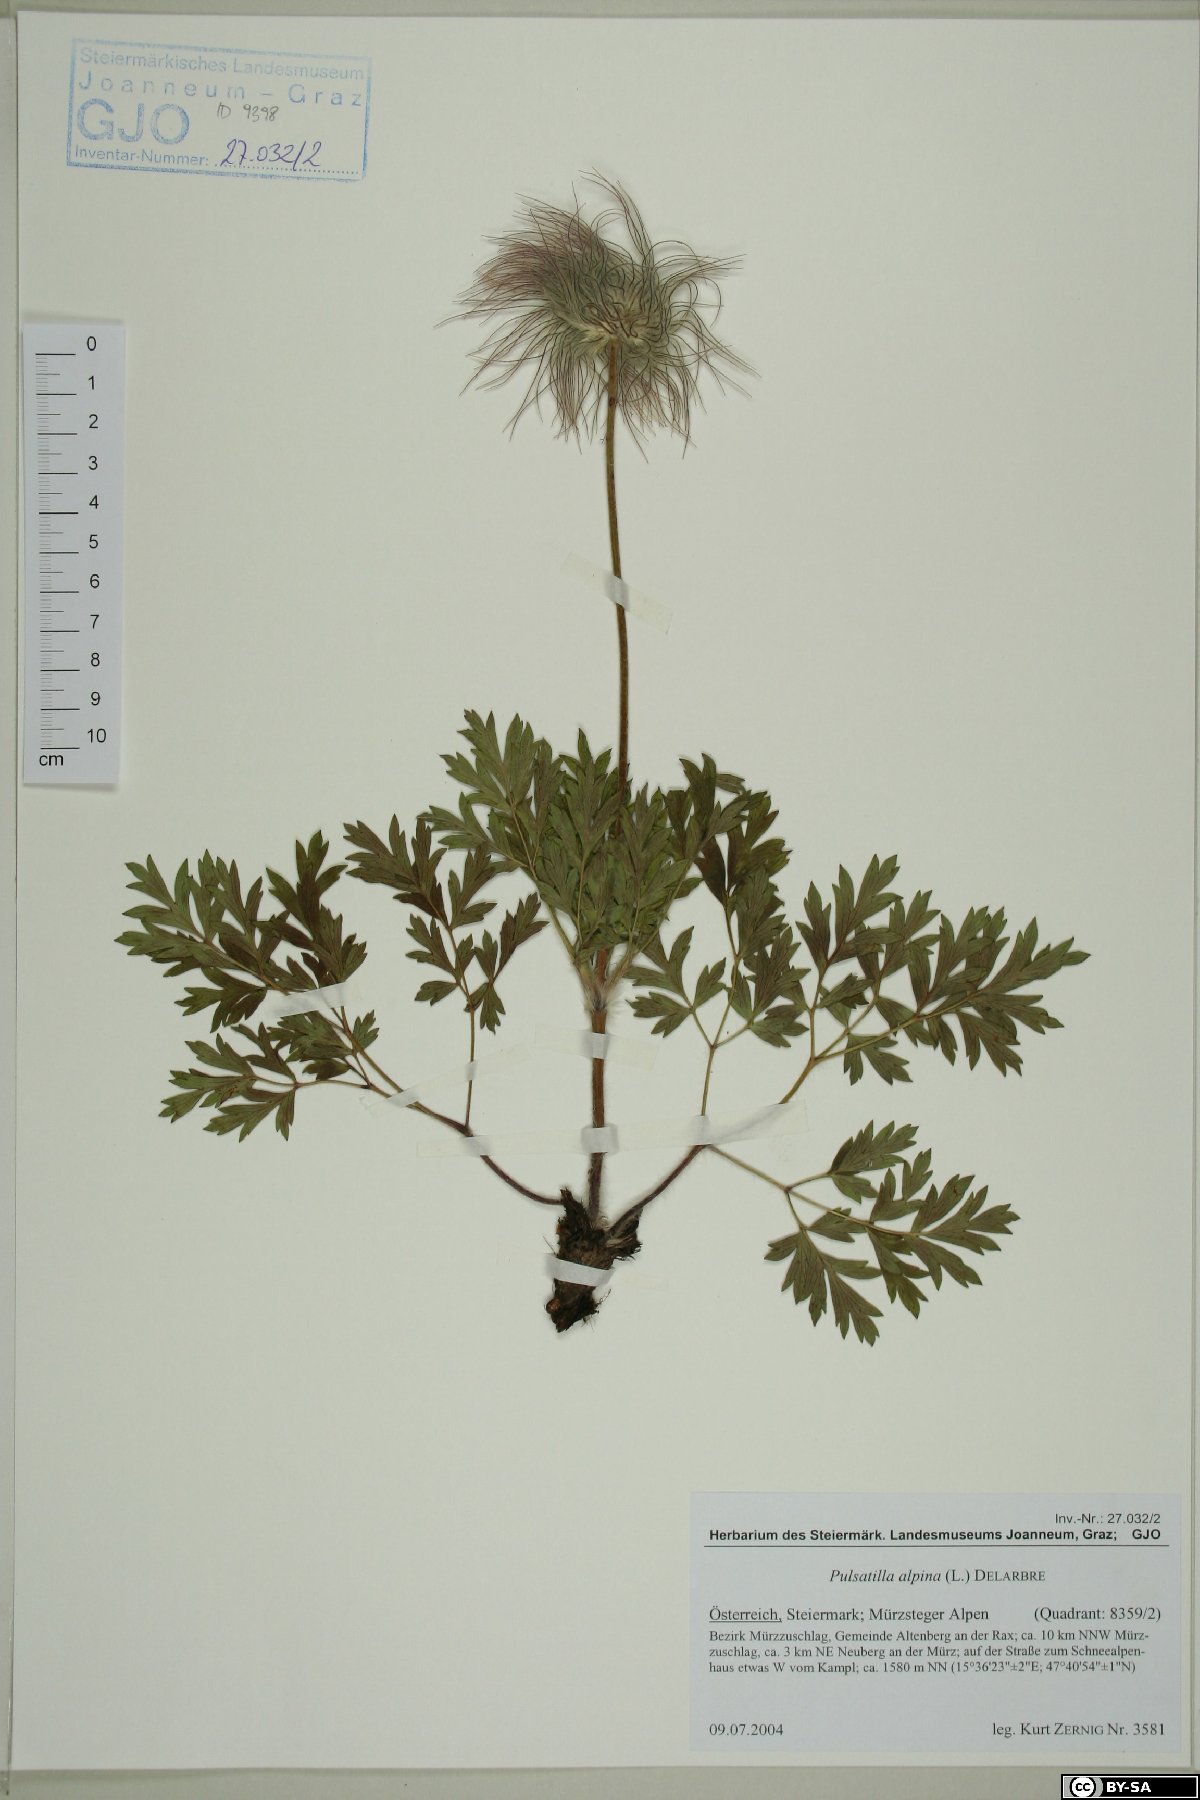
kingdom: Plantae
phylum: Tracheophyta
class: Magnoliopsida
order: Ranunculales
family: Ranunculaceae
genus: Pulsatilla
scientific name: Pulsatilla alpina
